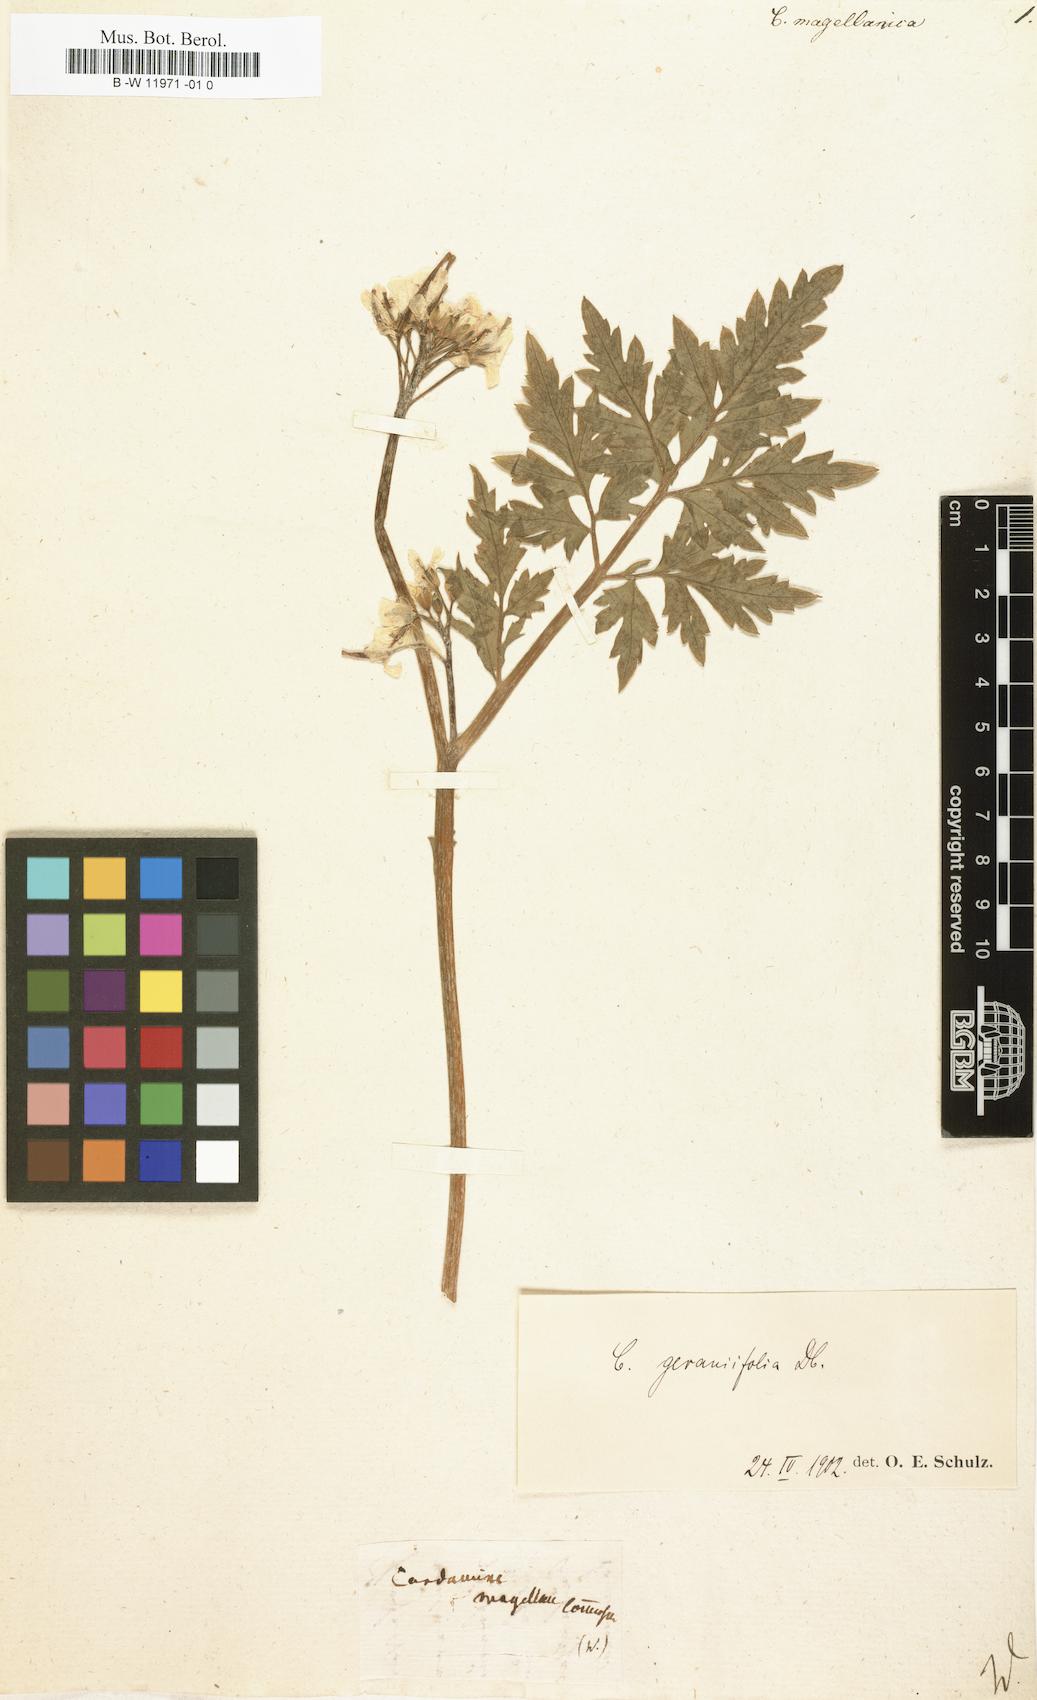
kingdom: Plantae
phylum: Tracheophyta
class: Magnoliopsida
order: Brassicales
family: Brassicaceae
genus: Cardamine
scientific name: Cardamine glacialis
